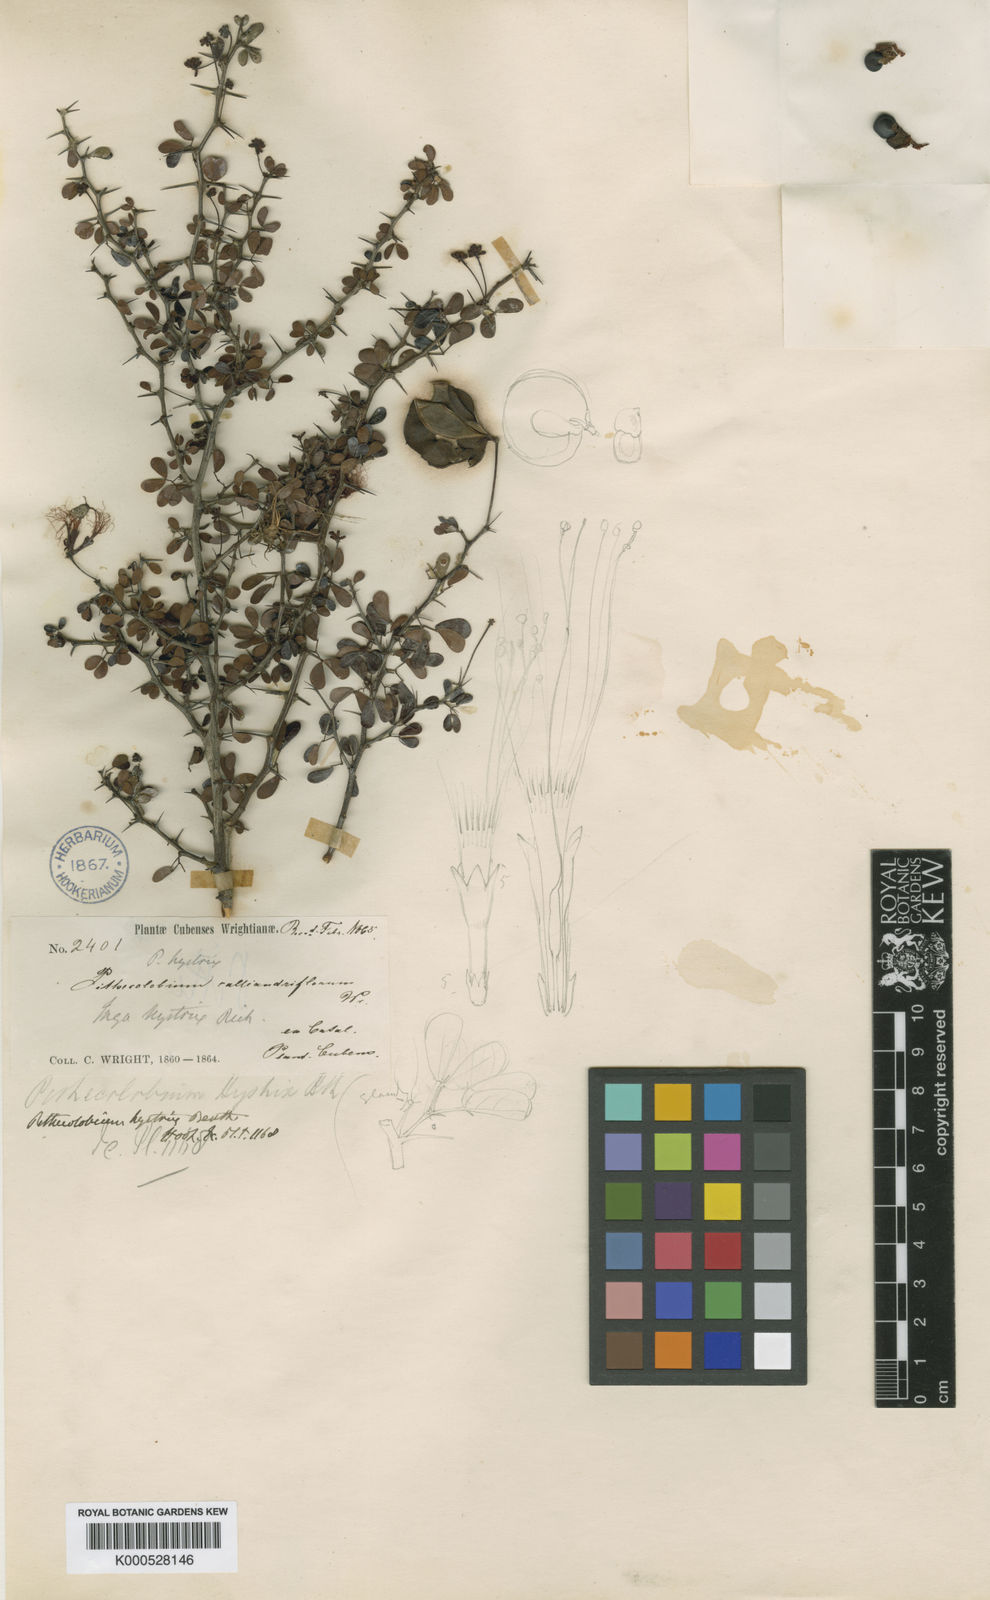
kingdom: Plantae
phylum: Tracheophyta
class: Magnoliopsida
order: Fabales
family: Fabaceae
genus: Pithecellobium
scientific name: Pithecellobium histrix
